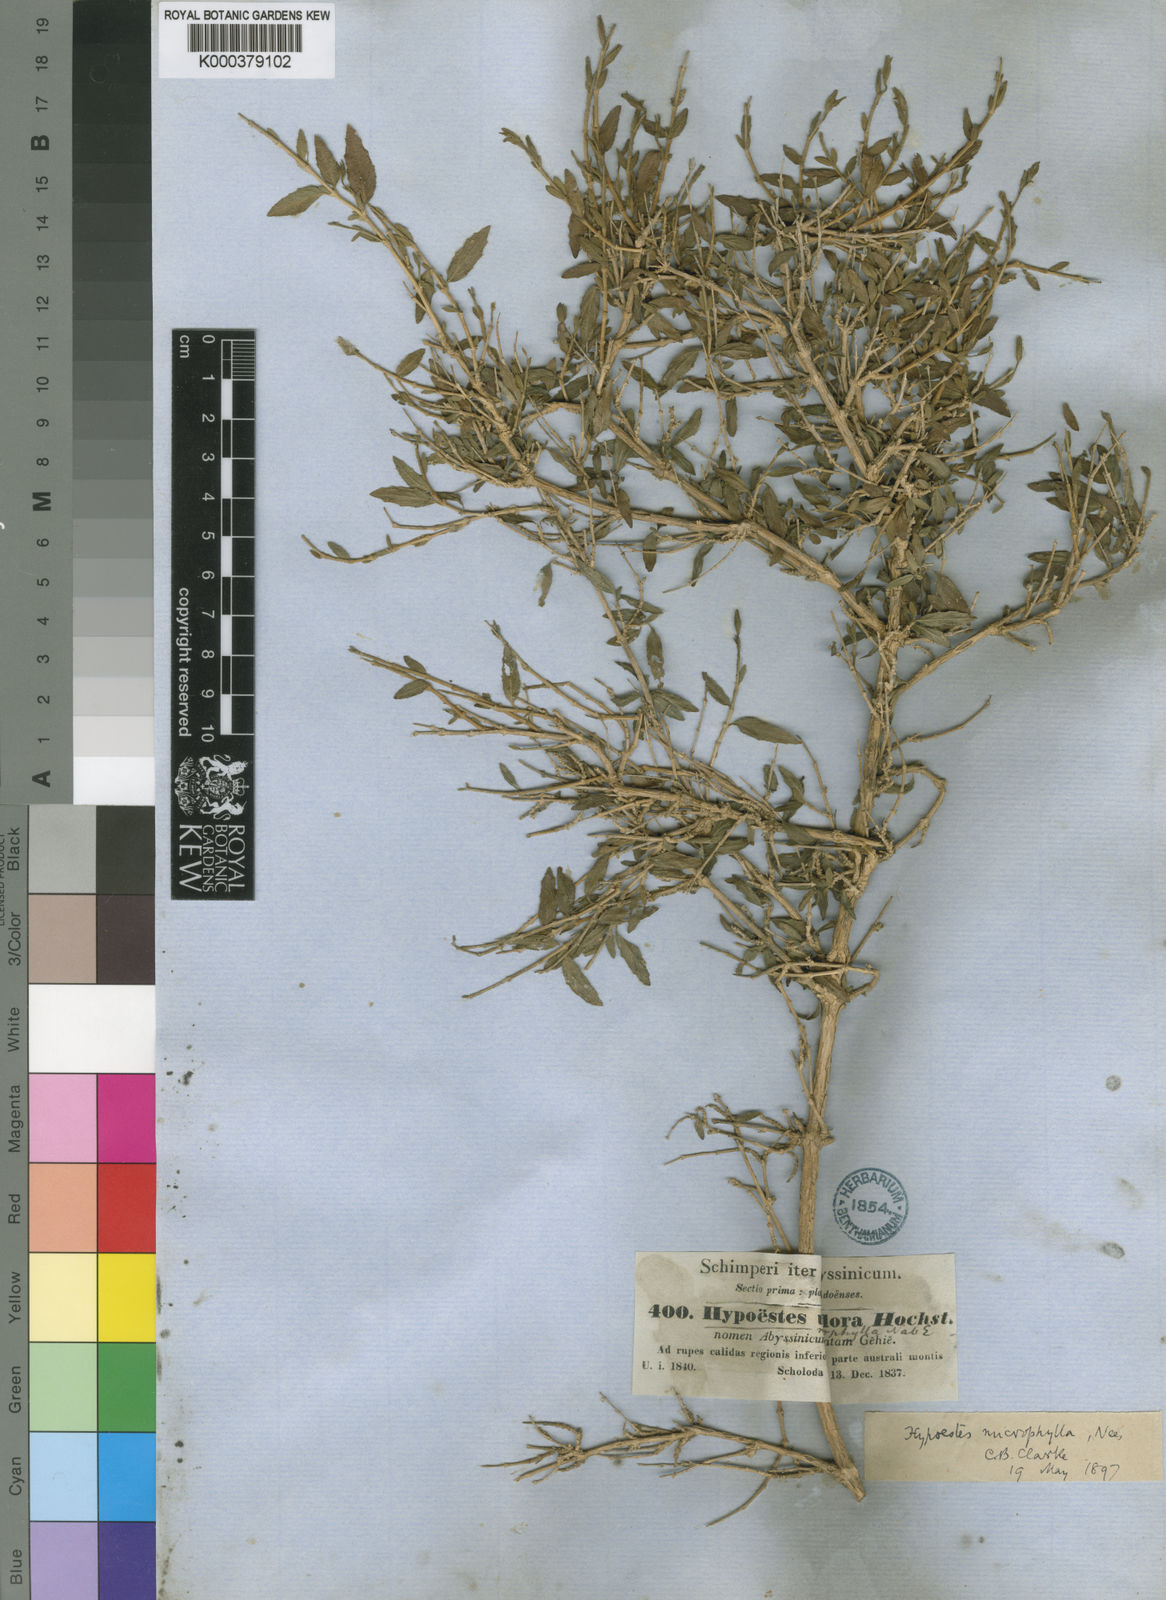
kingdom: Plantae
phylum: Tracheophyta
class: Magnoliopsida
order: Lamiales
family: Acanthaceae
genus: Hypoestes
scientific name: Hypoestes triflora
